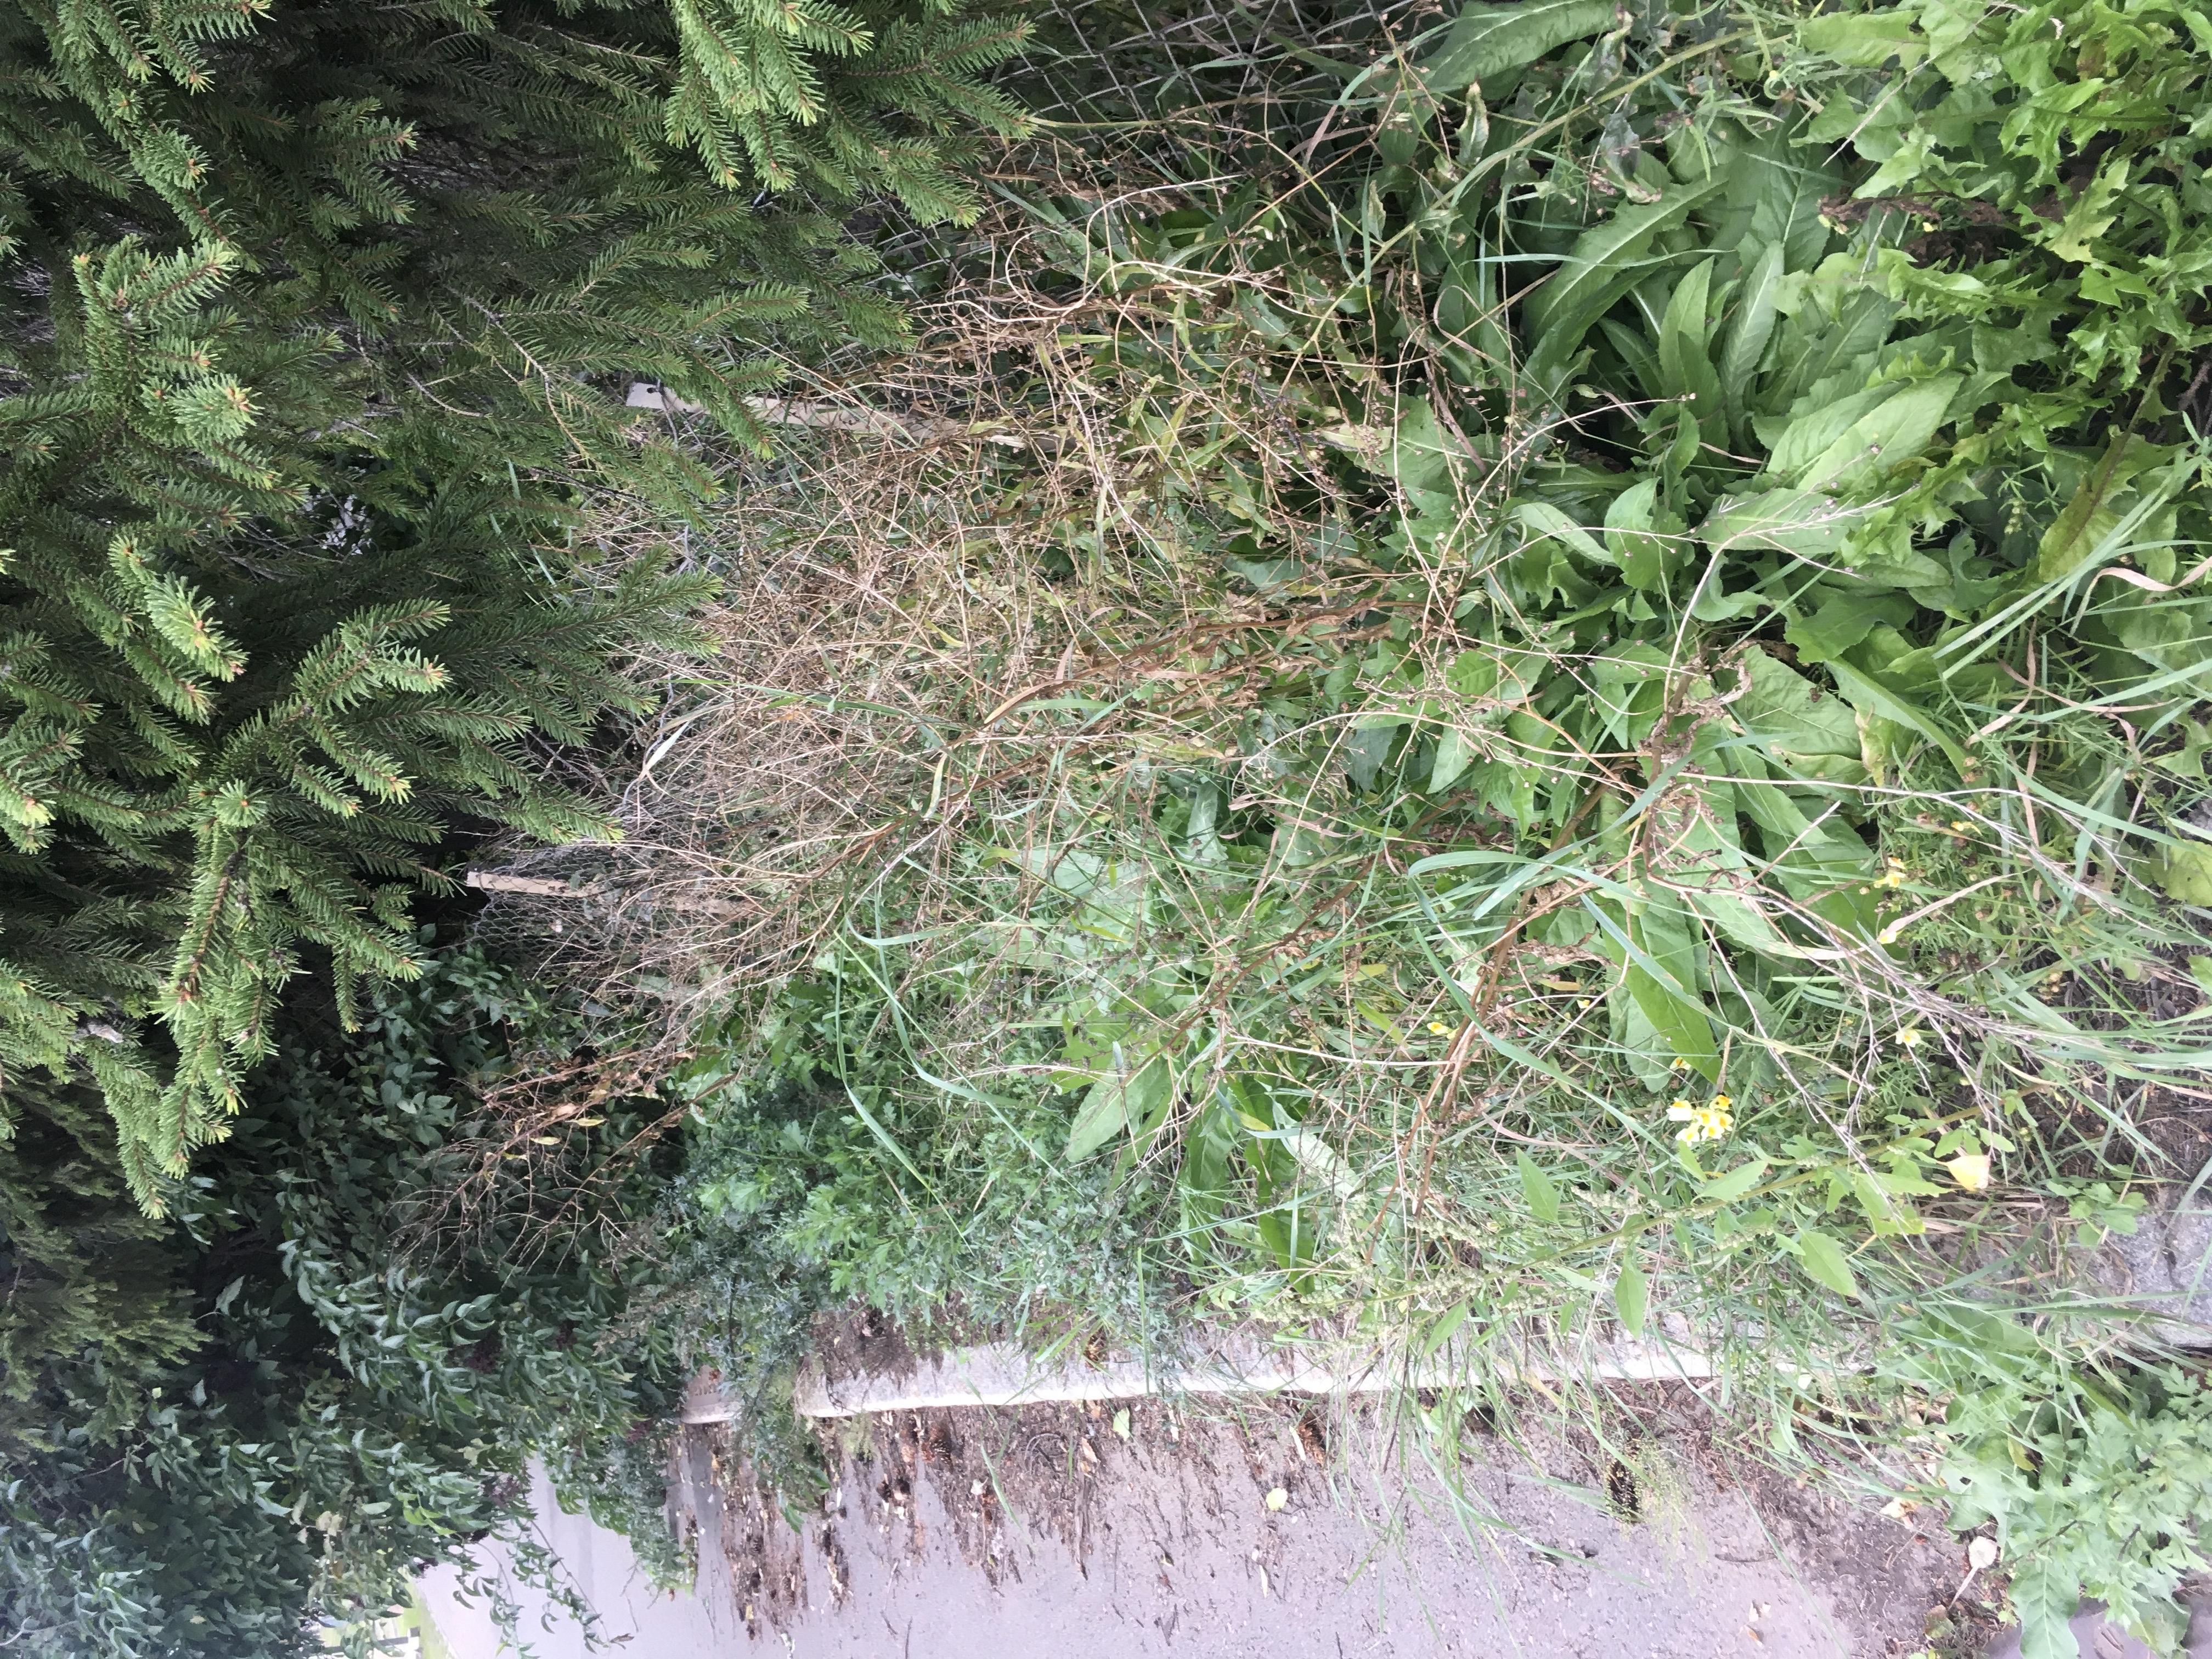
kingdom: Plantae
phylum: Tracheophyta
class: Magnoliopsida
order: Brassicales
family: Brassicaceae
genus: Bunias
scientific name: Bunias orientalis
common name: russekål
